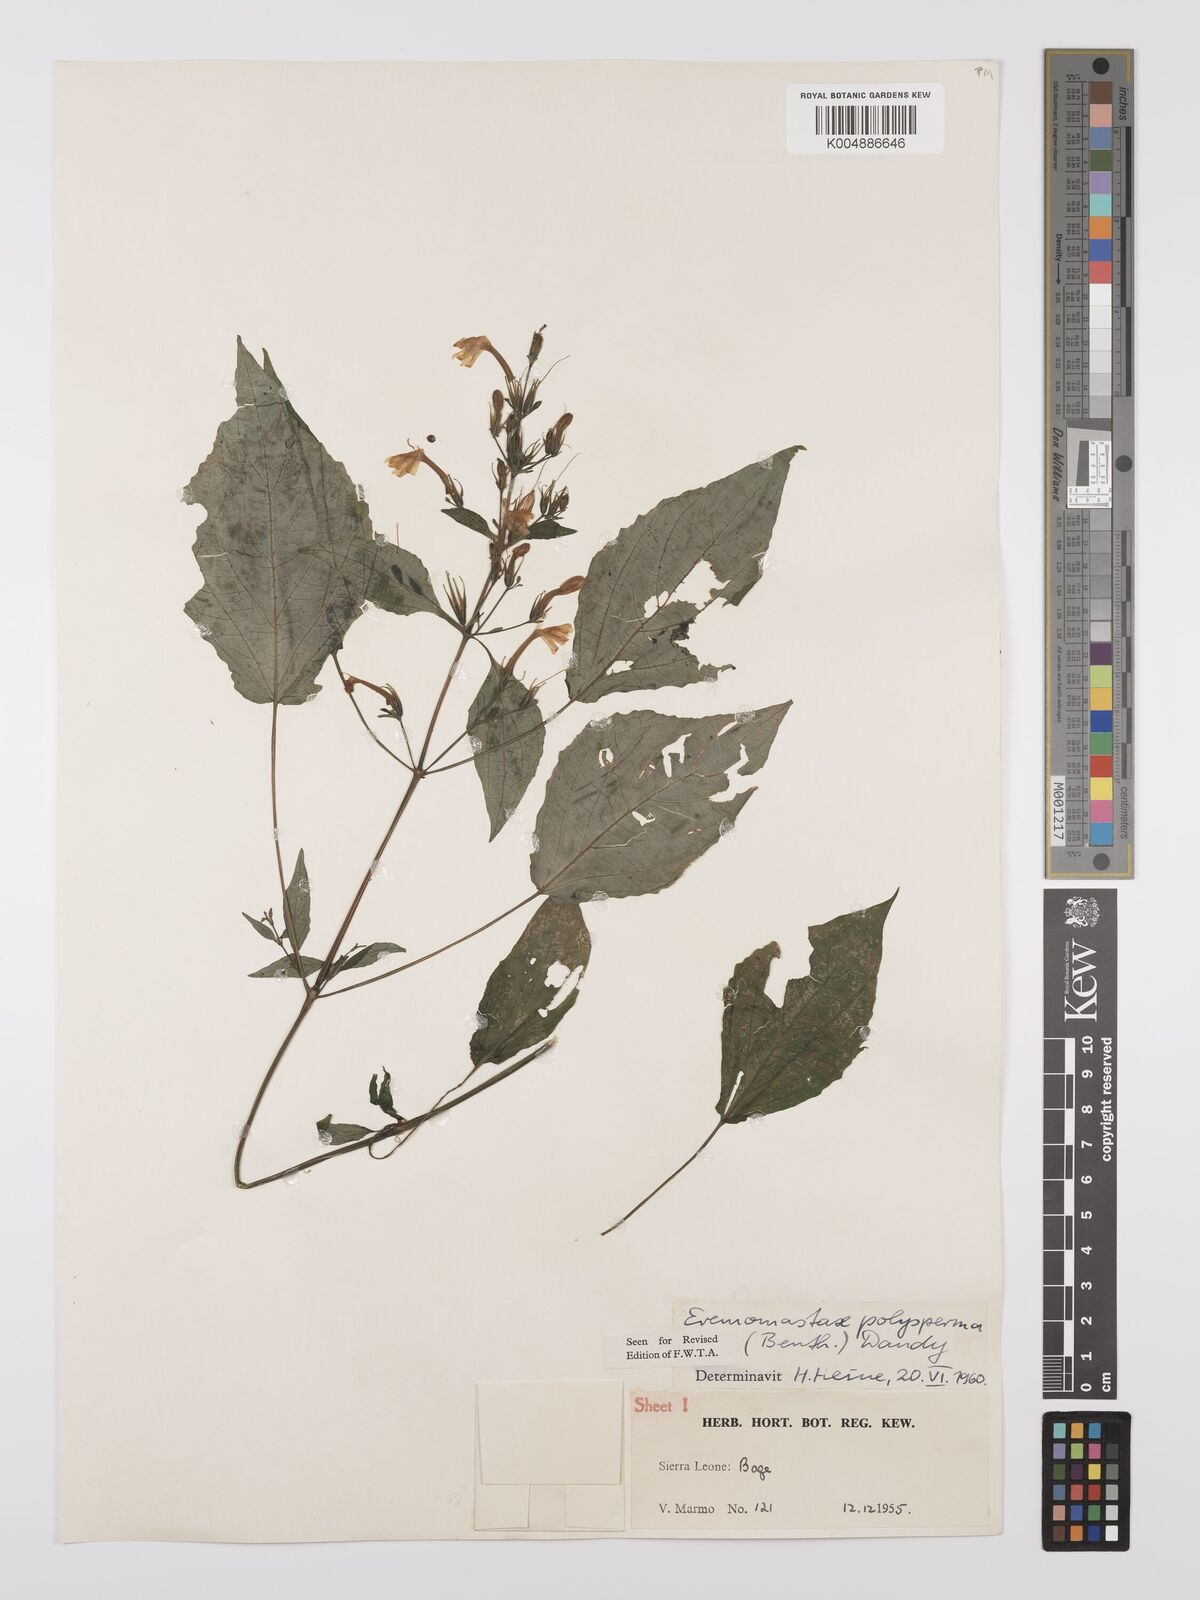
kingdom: Plantae
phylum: Tracheophyta
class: Magnoliopsida
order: Lamiales
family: Acanthaceae
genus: Eremomastax
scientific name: Eremomastax speciosa
